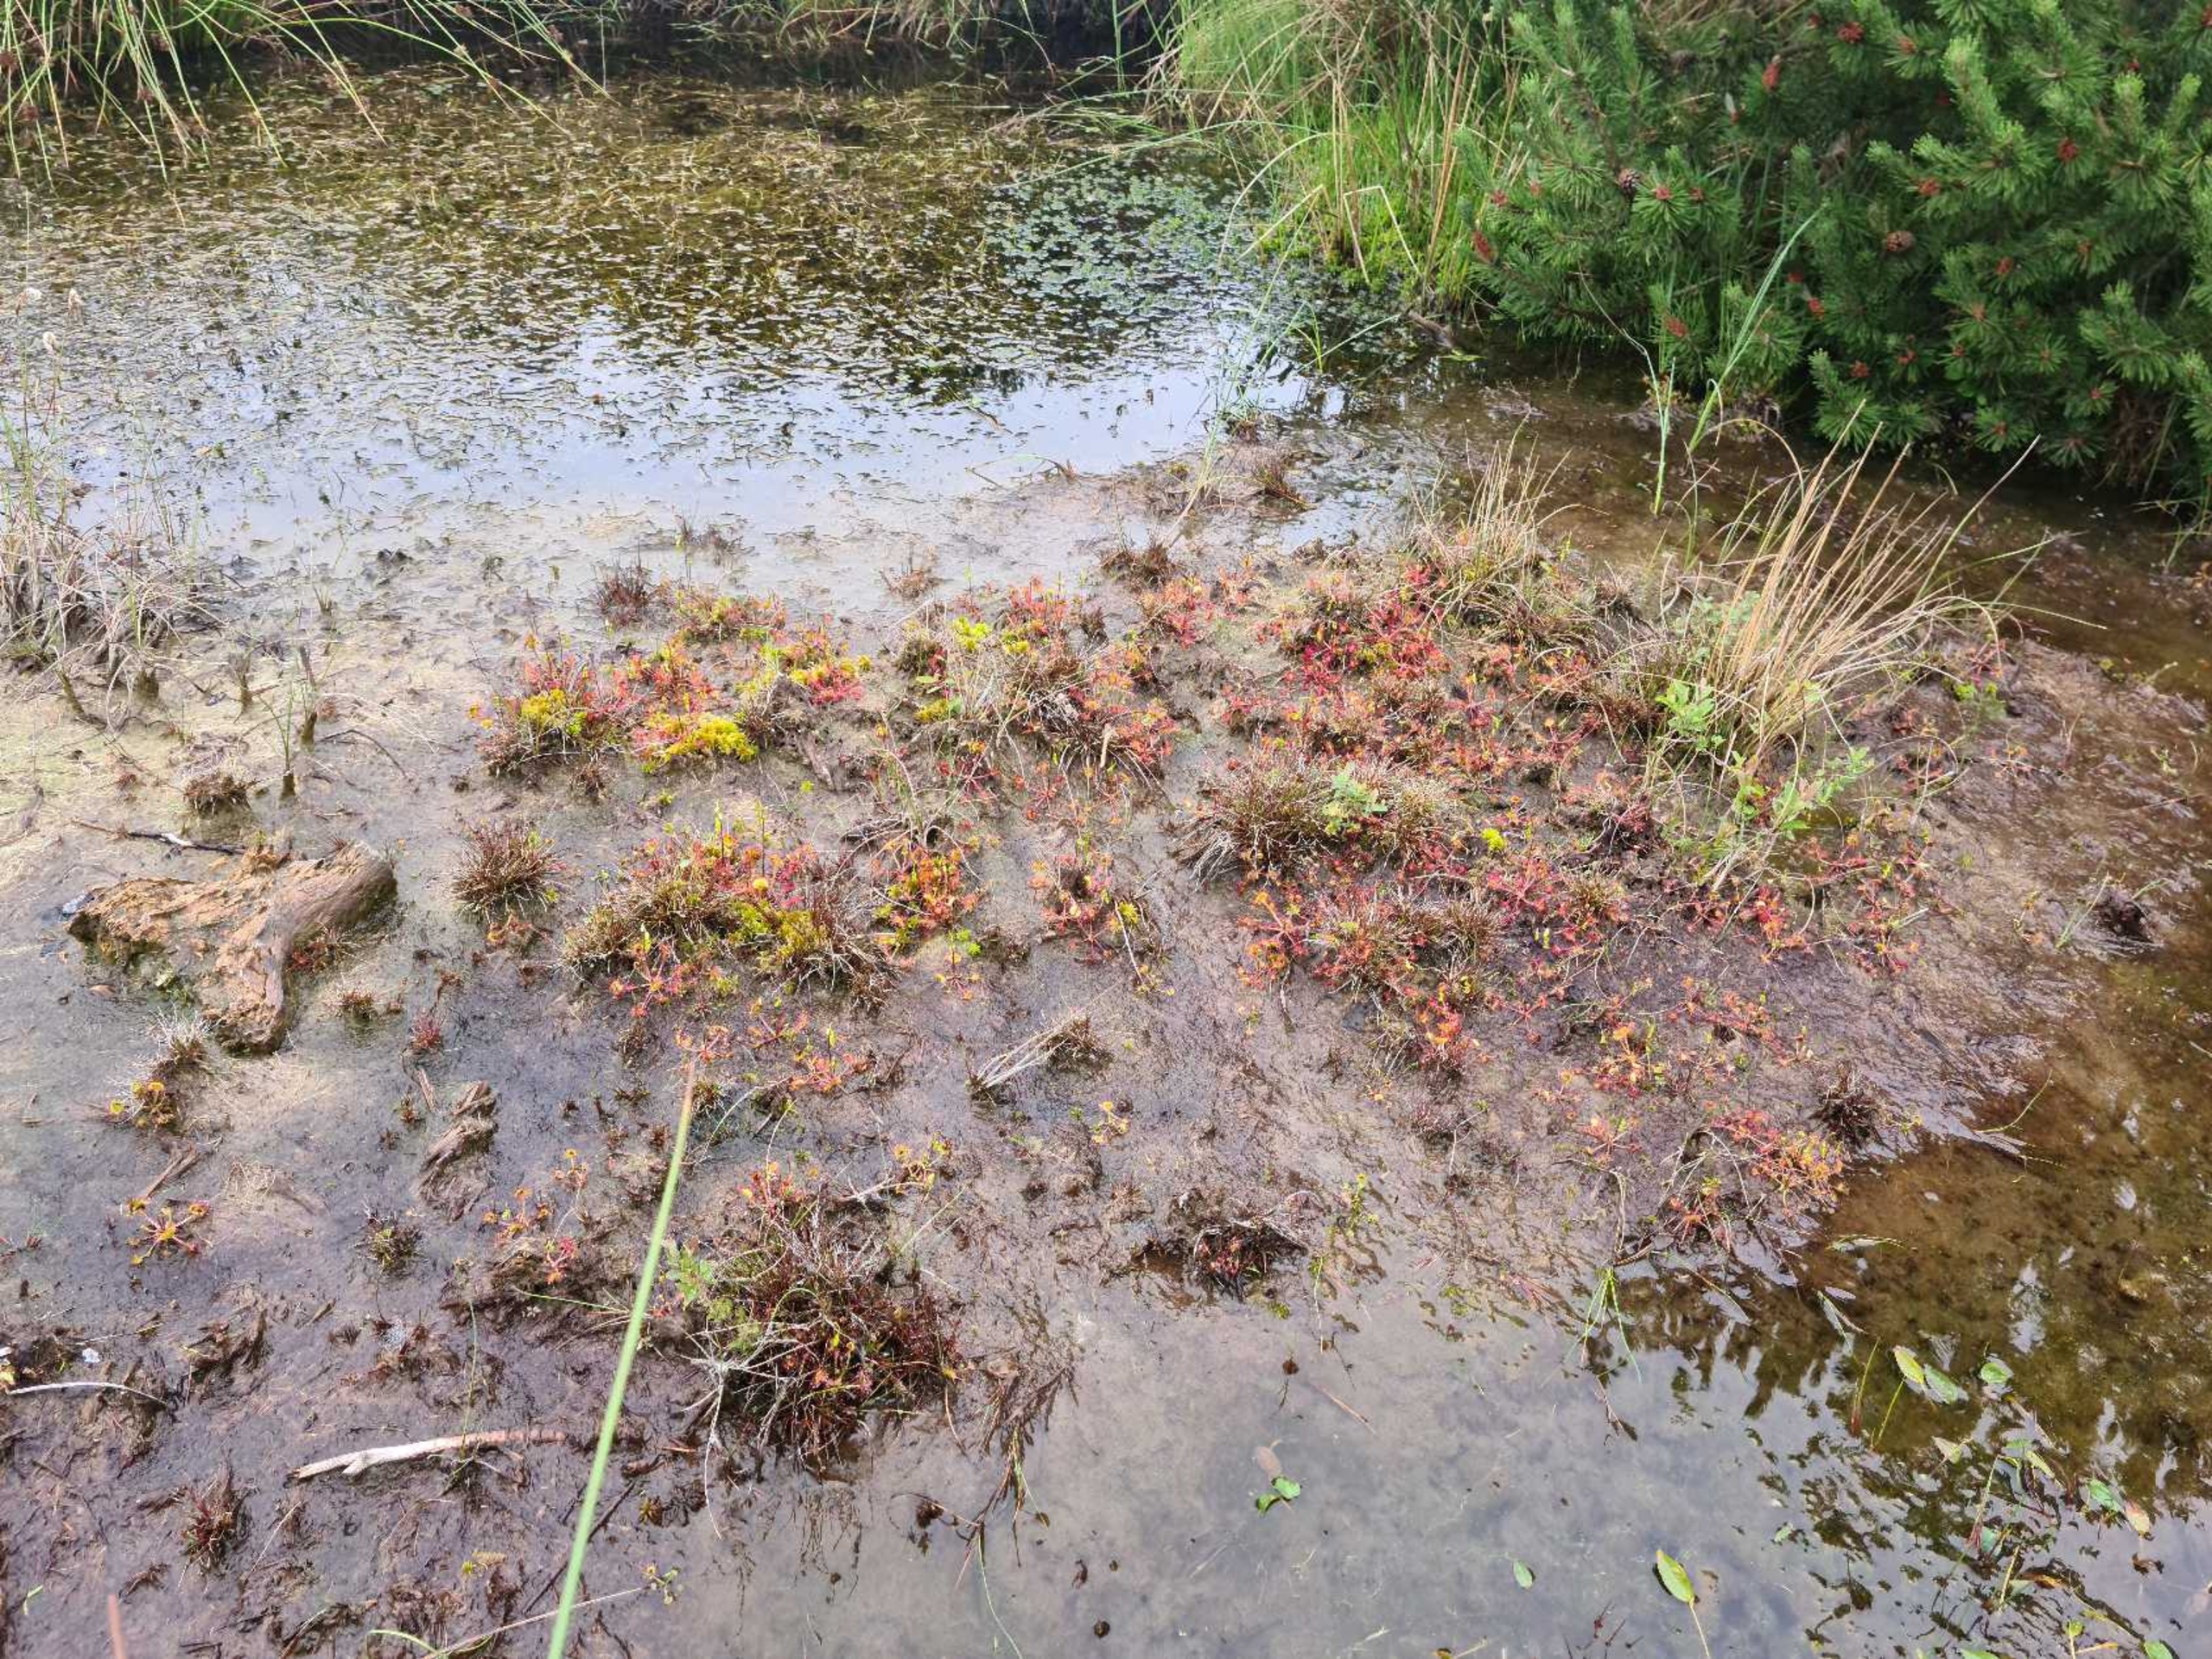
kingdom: Plantae
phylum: Tracheophyta
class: Magnoliopsida
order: Caryophyllales
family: Droseraceae
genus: Drosera
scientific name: Drosera rotundifolia
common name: Rundbladet soldug
